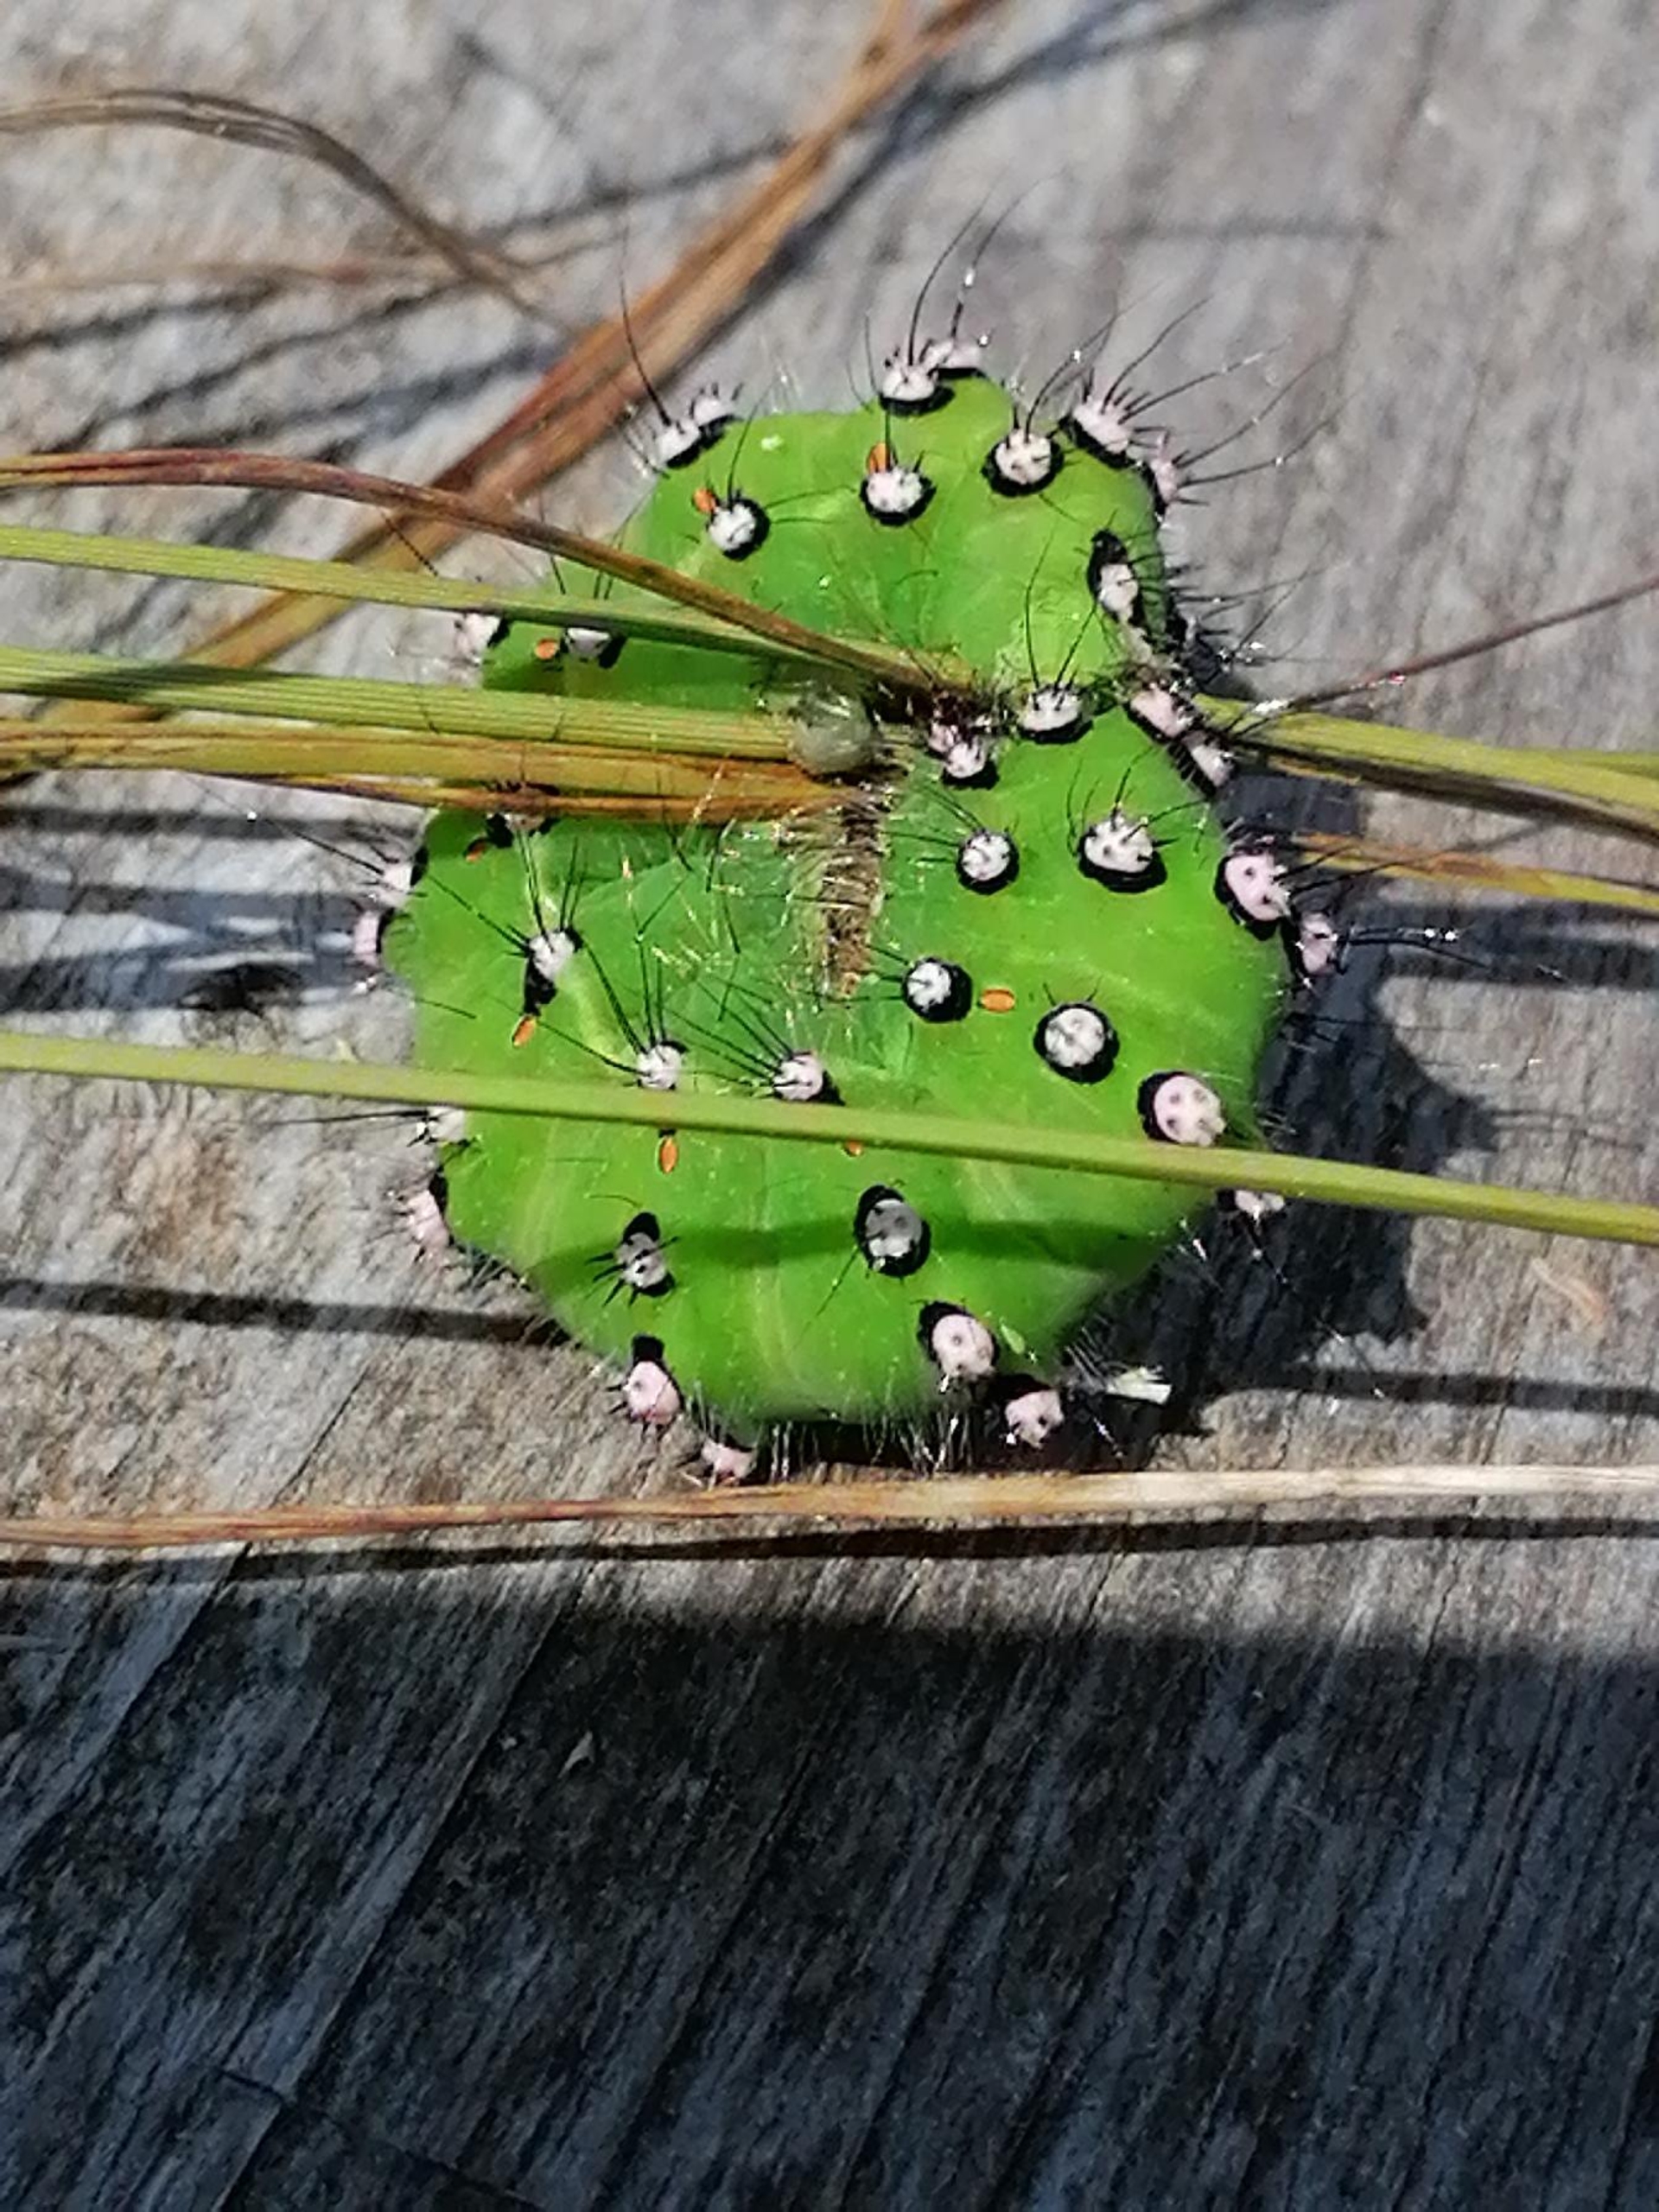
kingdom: Animalia
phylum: Arthropoda
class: Insecta
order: Lepidoptera
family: Saturniidae
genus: Saturnia
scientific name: Saturnia pavonia
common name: Lille natpåfugleøje
